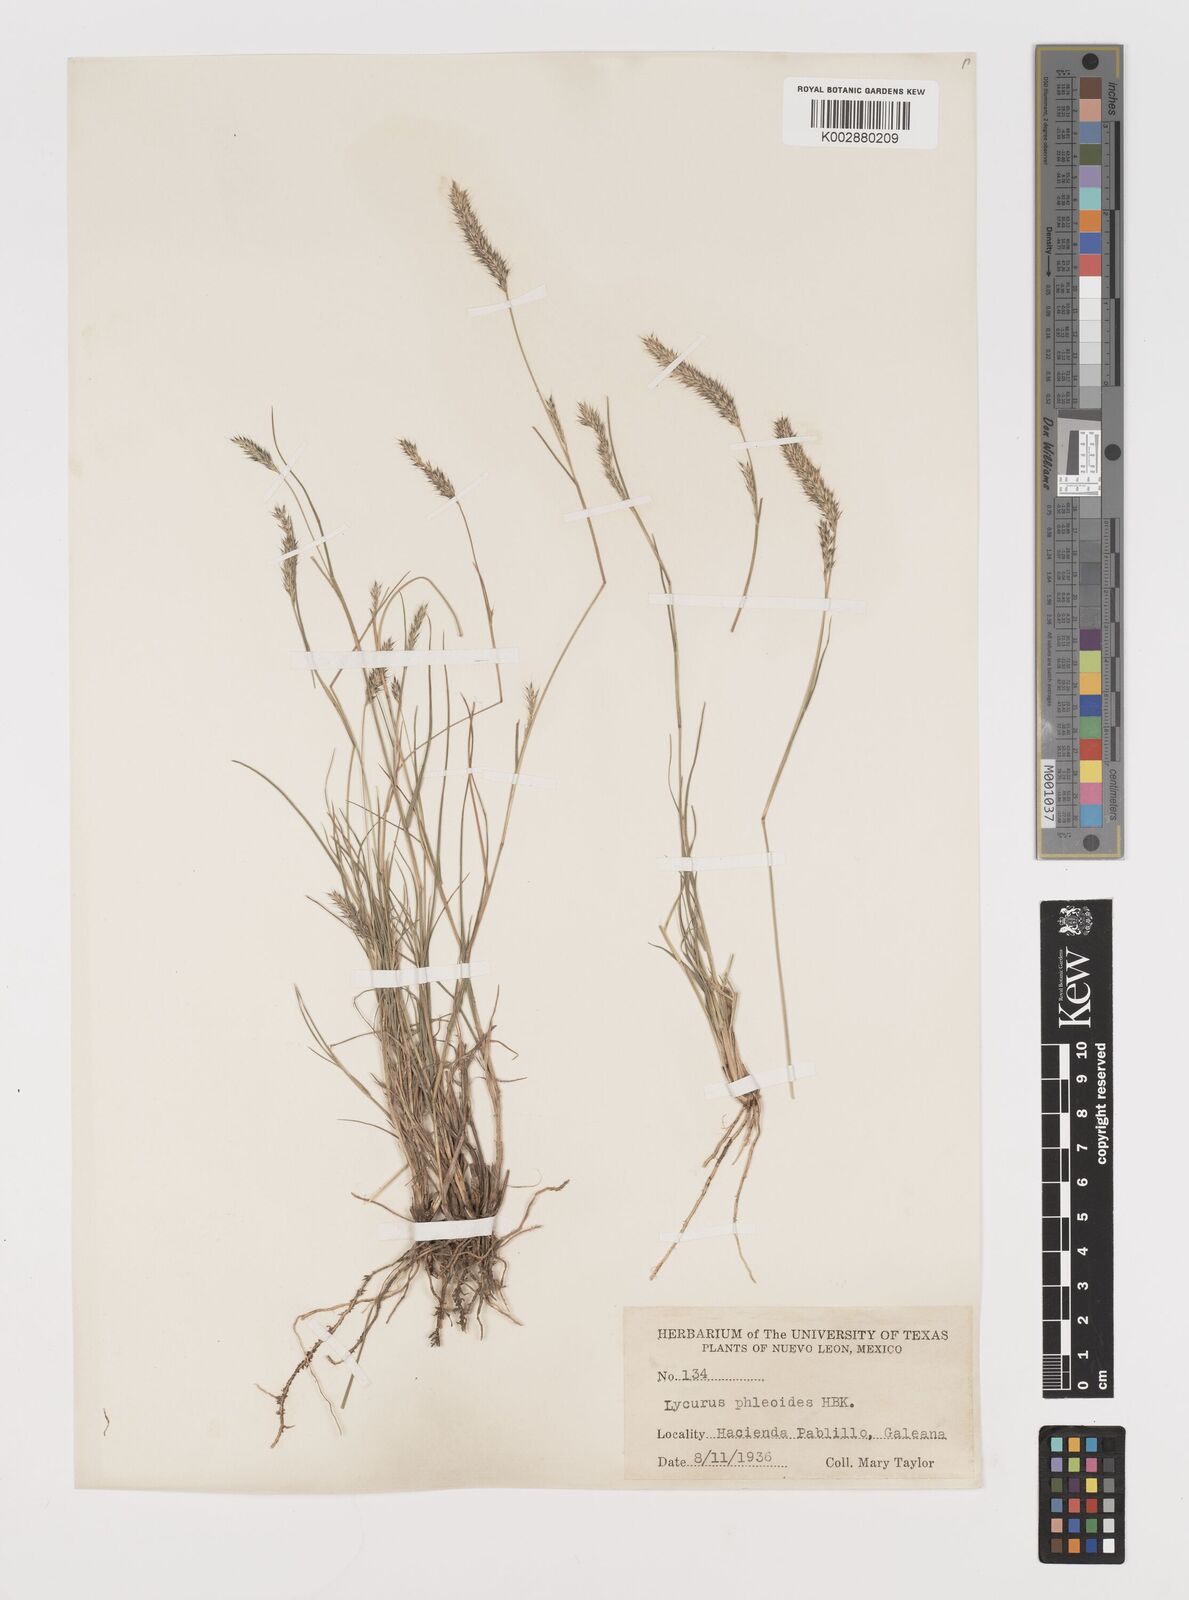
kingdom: Plantae
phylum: Tracheophyta
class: Liliopsida
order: Poales
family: Poaceae
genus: Muhlenbergia
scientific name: Muhlenbergia phleoides
